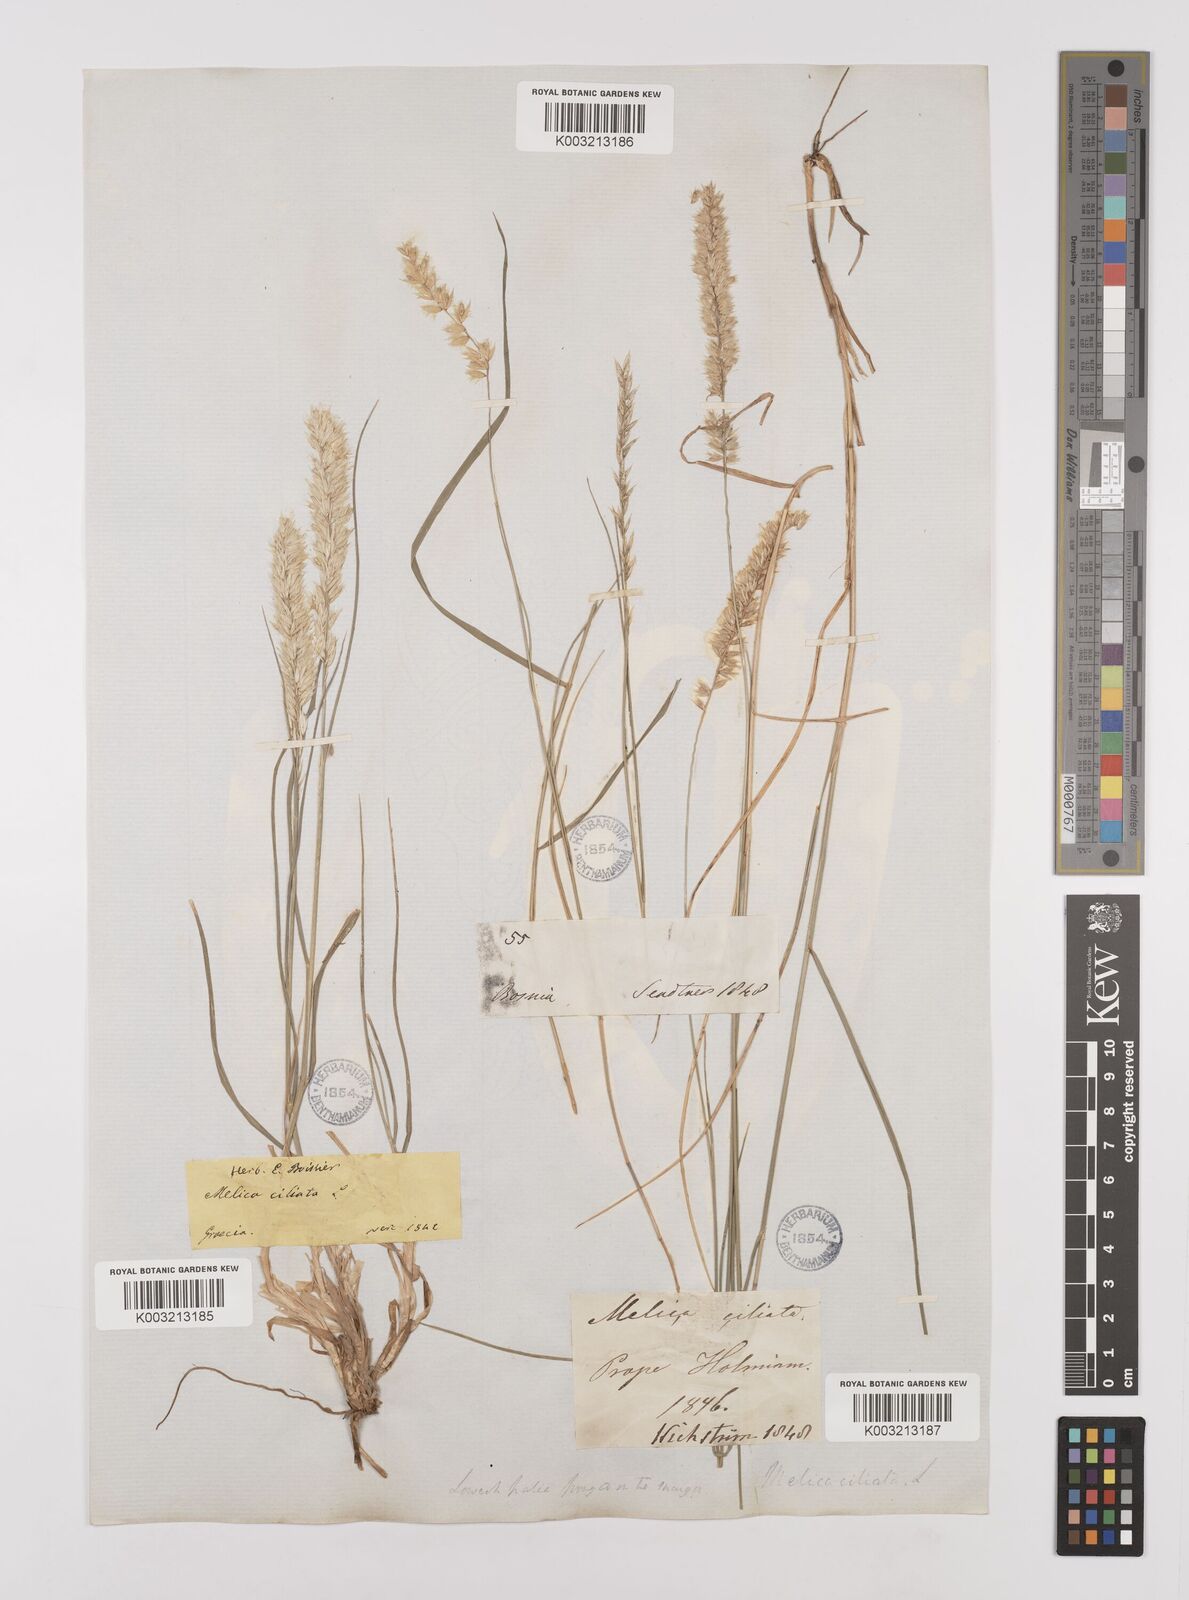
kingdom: Plantae
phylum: Tracheophyta
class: Liliopsida
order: Poales
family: Poaceae
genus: Melica
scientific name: Melica ciliata
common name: Hairy melicgrass
